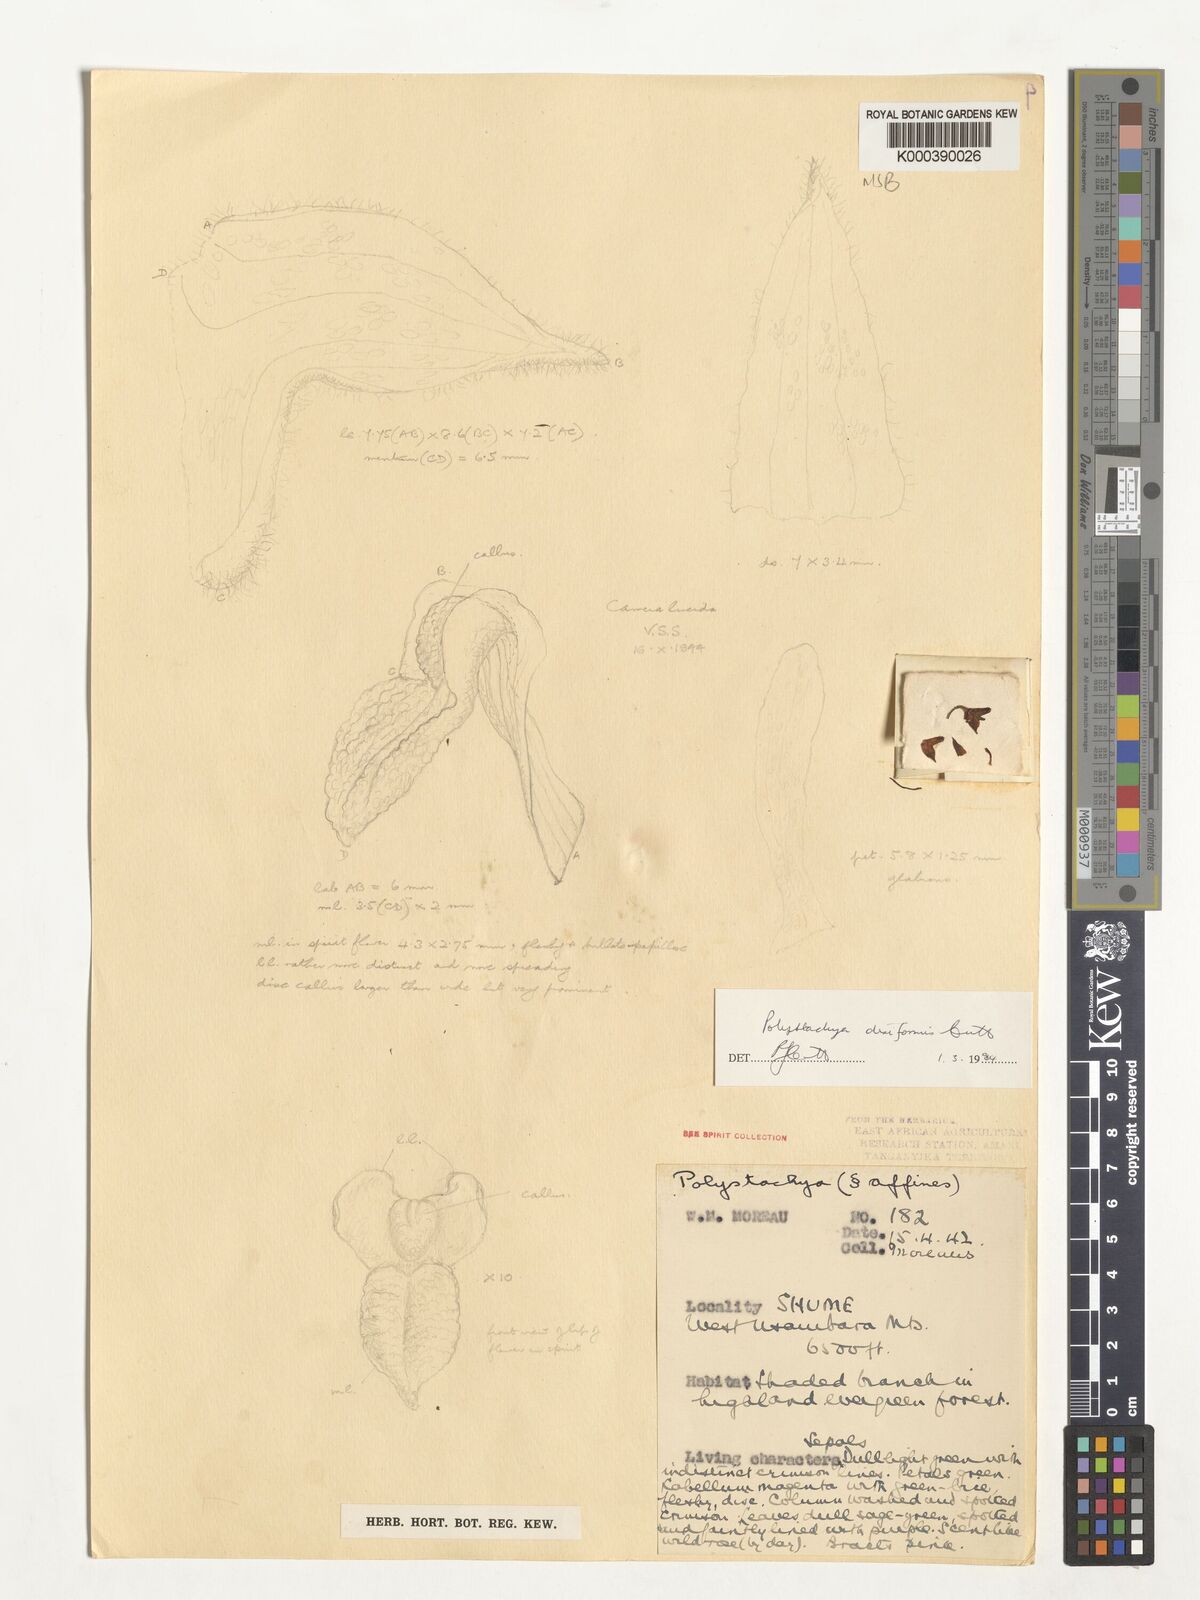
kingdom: Plantae
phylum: Tracheophyta
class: Liliopsida
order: Asparagales
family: Orchidaceae
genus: Polystachya
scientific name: Polystachya disiformis
